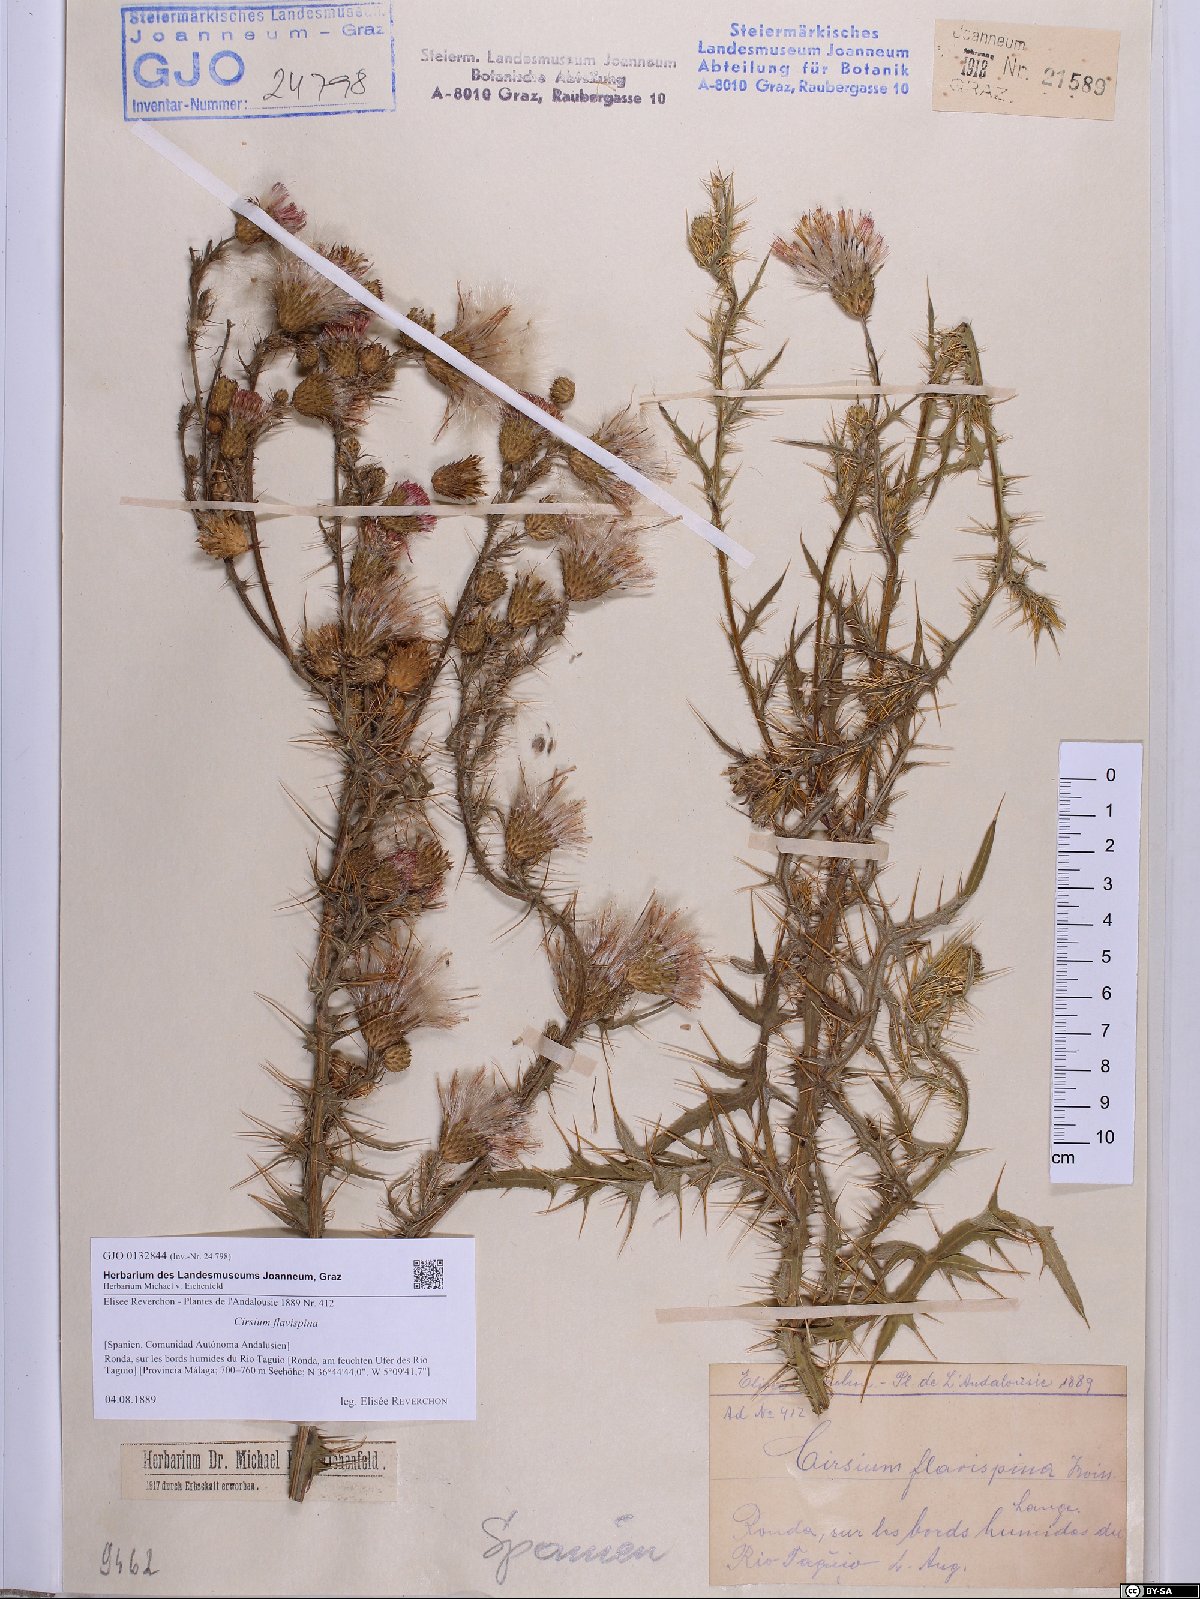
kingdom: Plantae
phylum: Tracheophyta
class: Magnoliopsida
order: Asterales
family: Asteraceae
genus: Cirsium
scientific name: Cirsium pyrenaicum
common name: Pyrenean thistle
